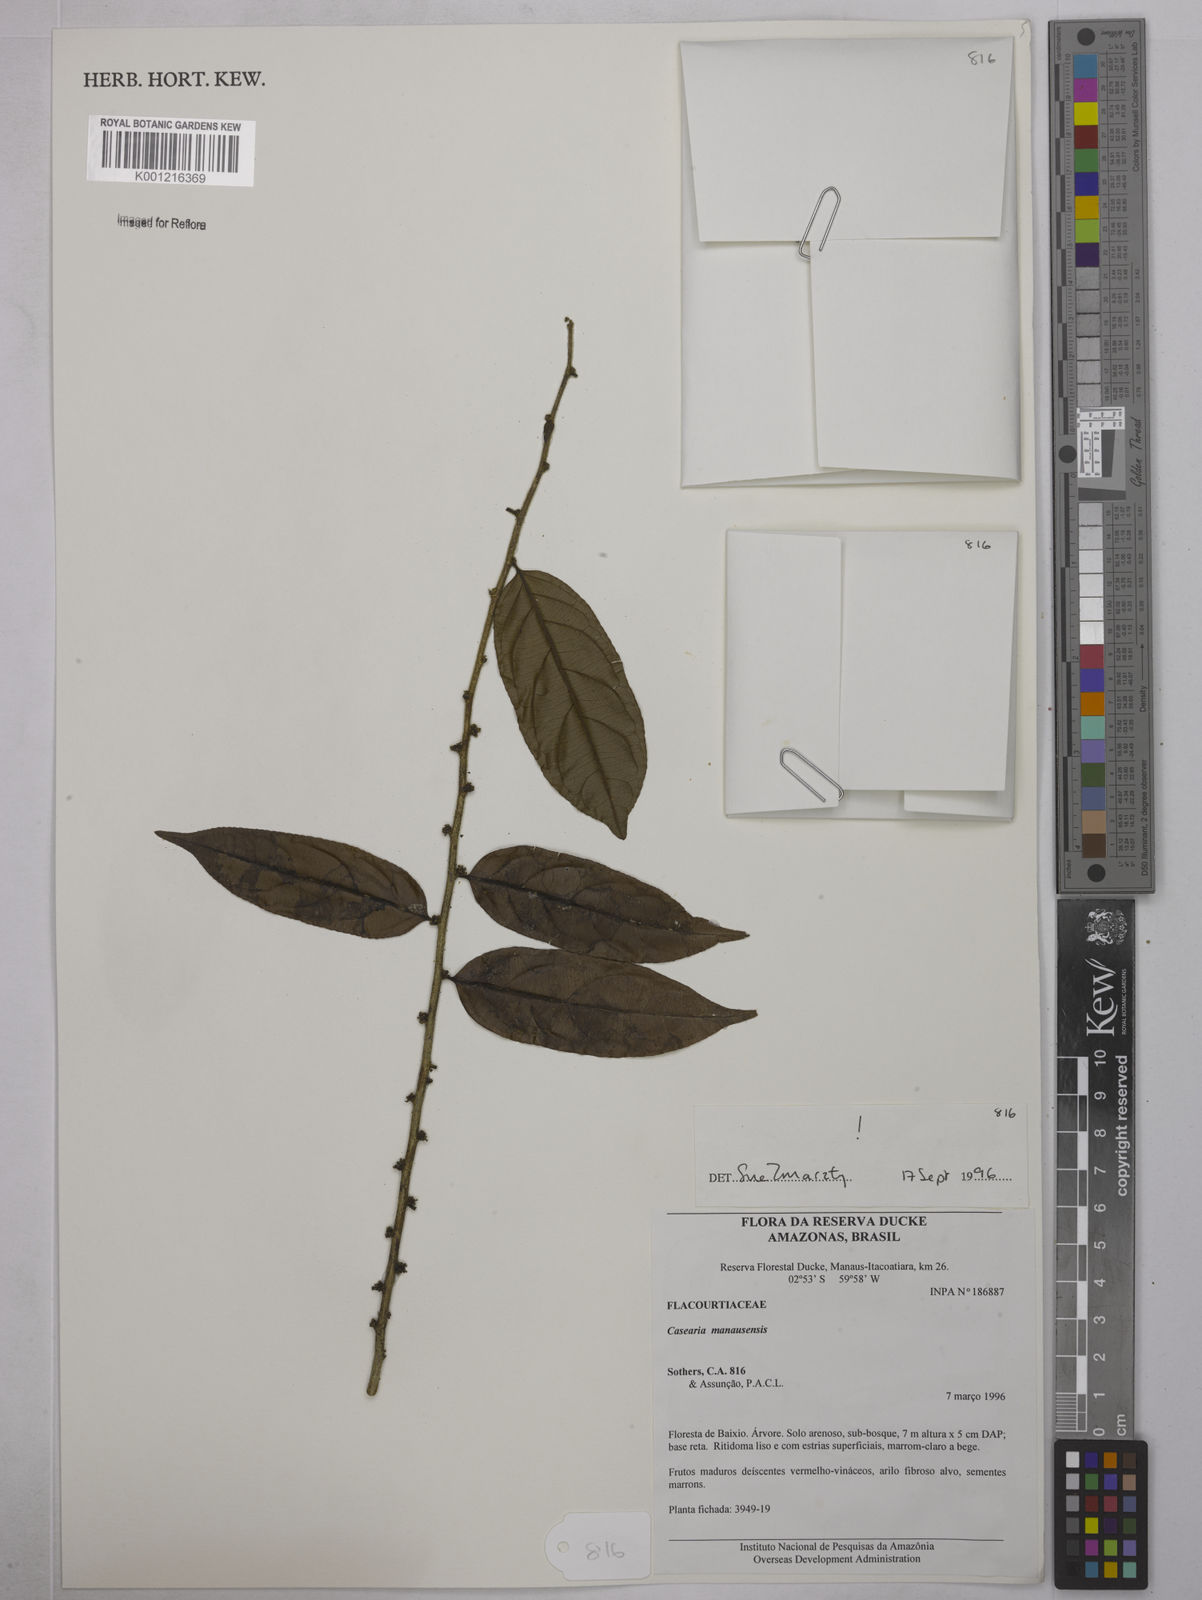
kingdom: Plantae
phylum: Tracheophyta
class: Magnoliopsida
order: Malpighiales
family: Salicaceae
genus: Casearia
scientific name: Casearia manausensis
